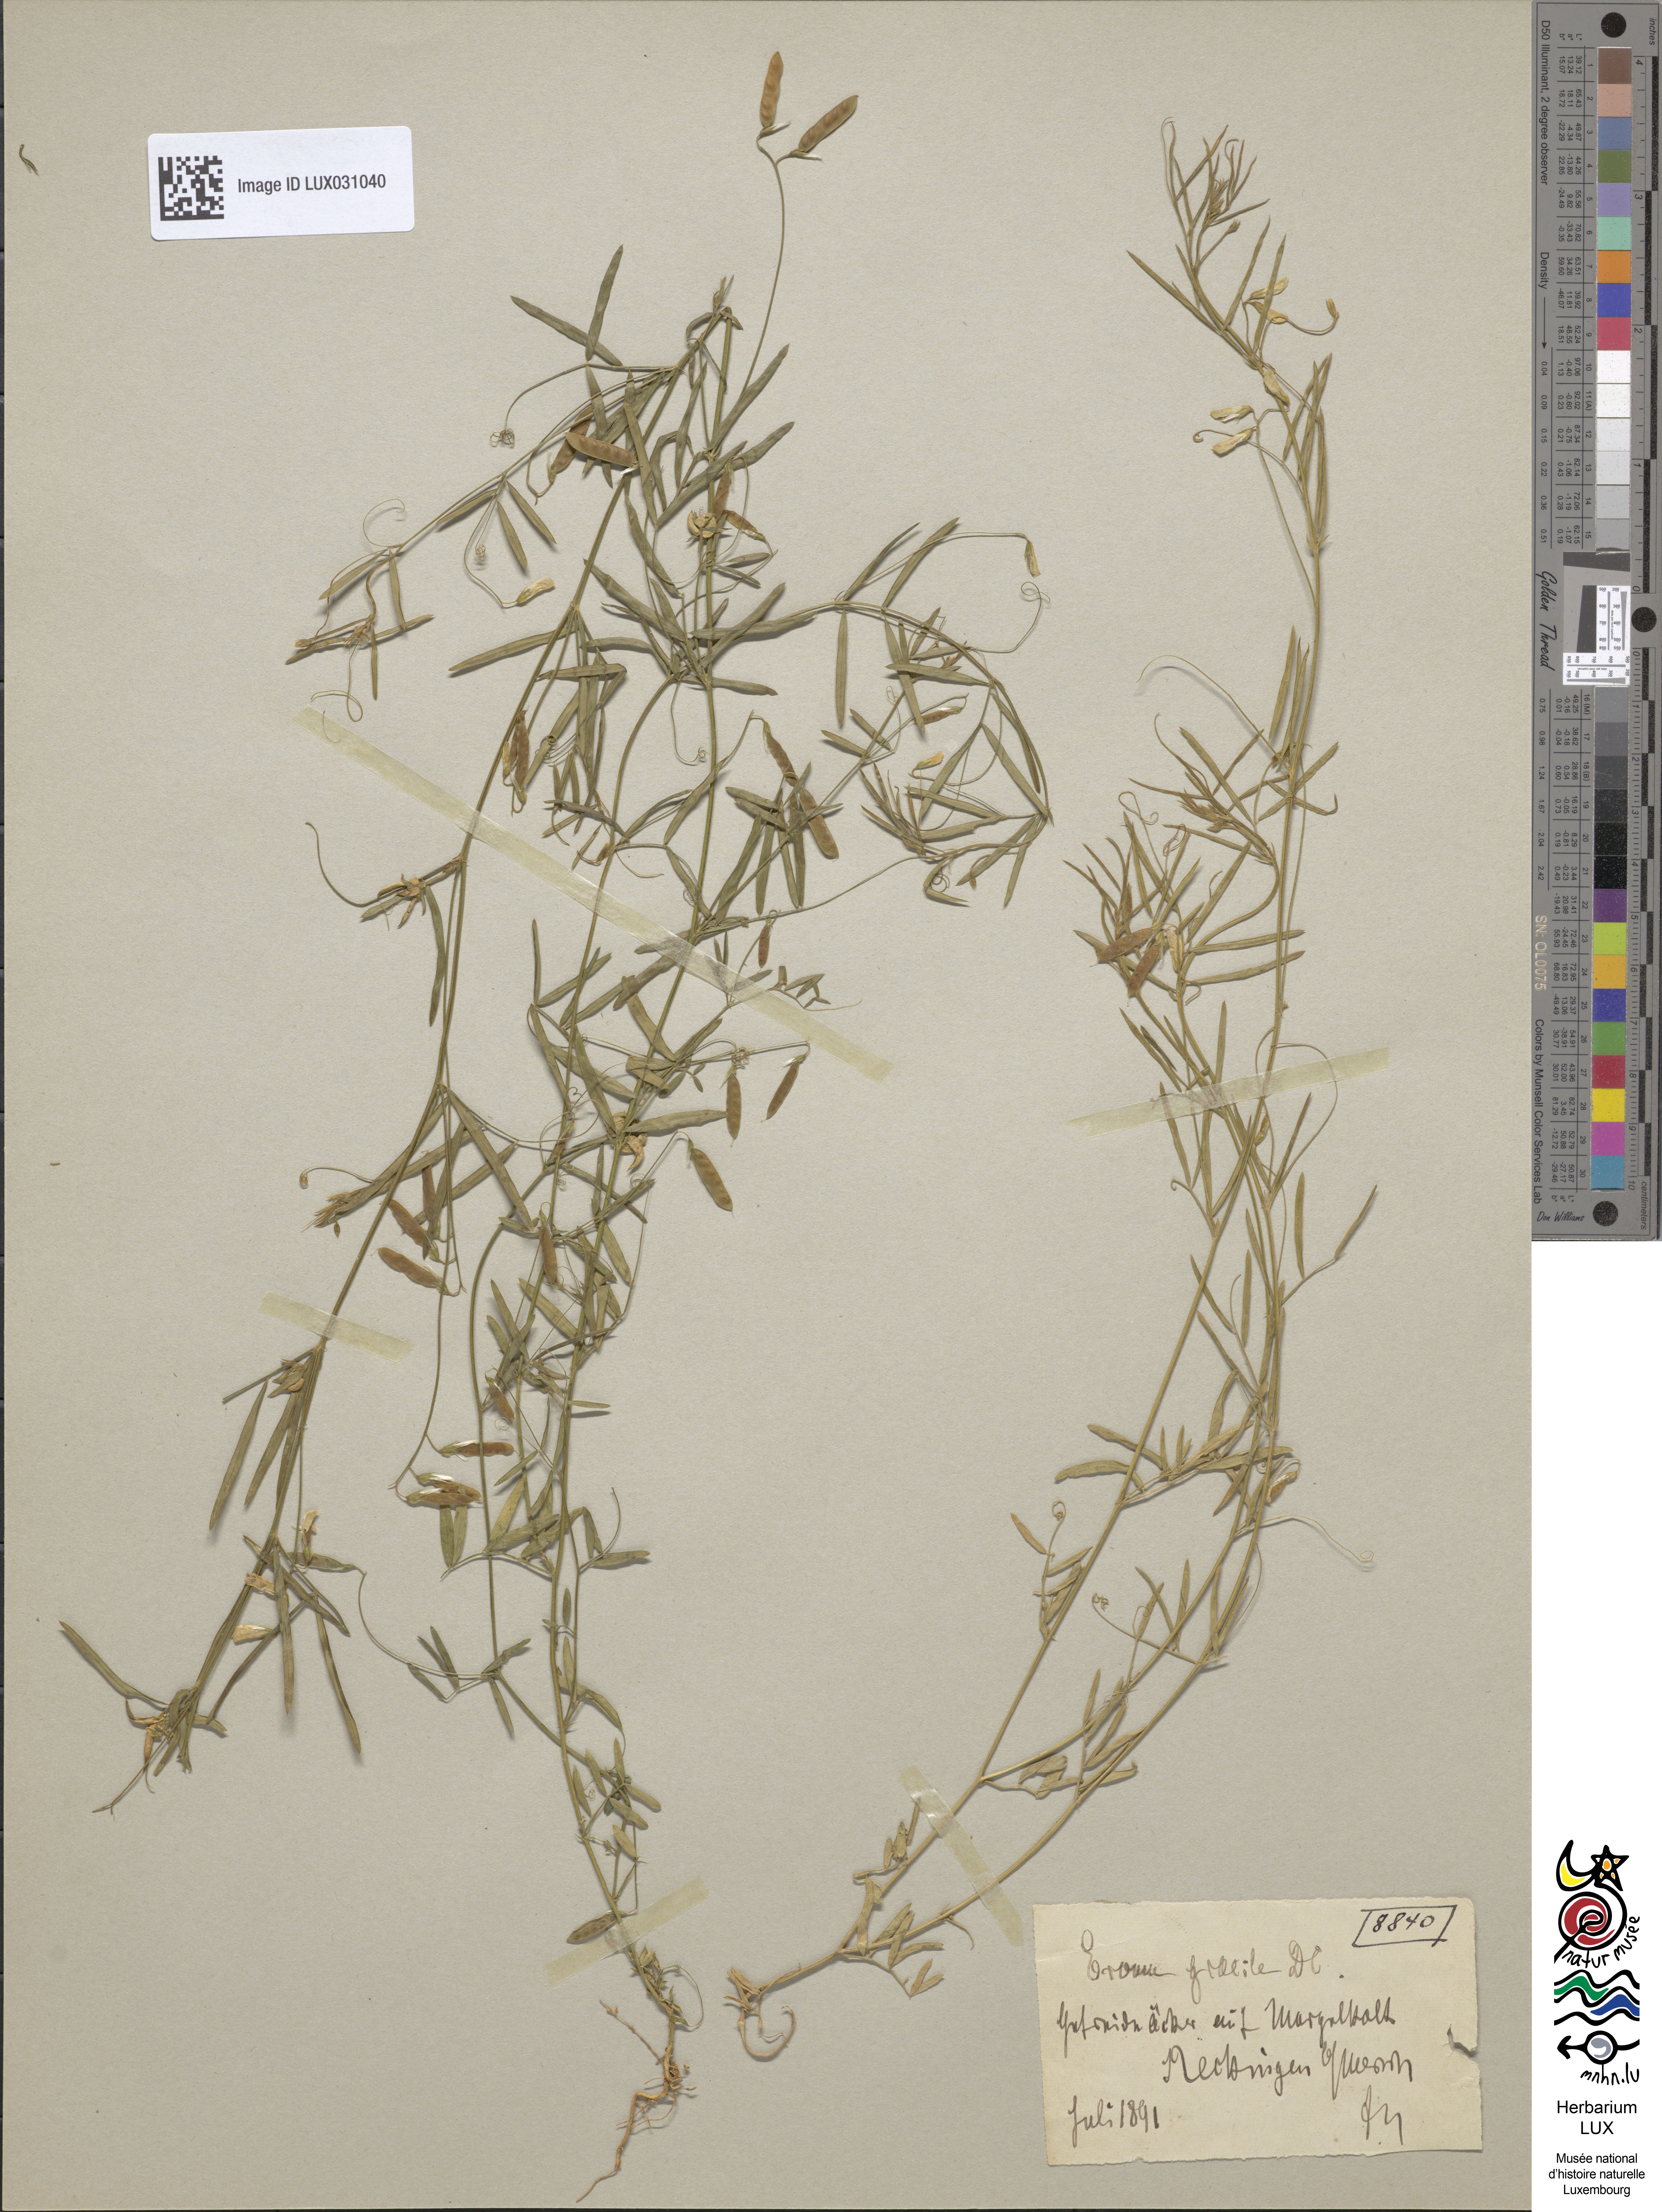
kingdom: Plantae
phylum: Tracheophyta
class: Magnoliopsida
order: Fabales
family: Fabaceae
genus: Vicia
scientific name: Vicia parviflora
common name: Slender tare
